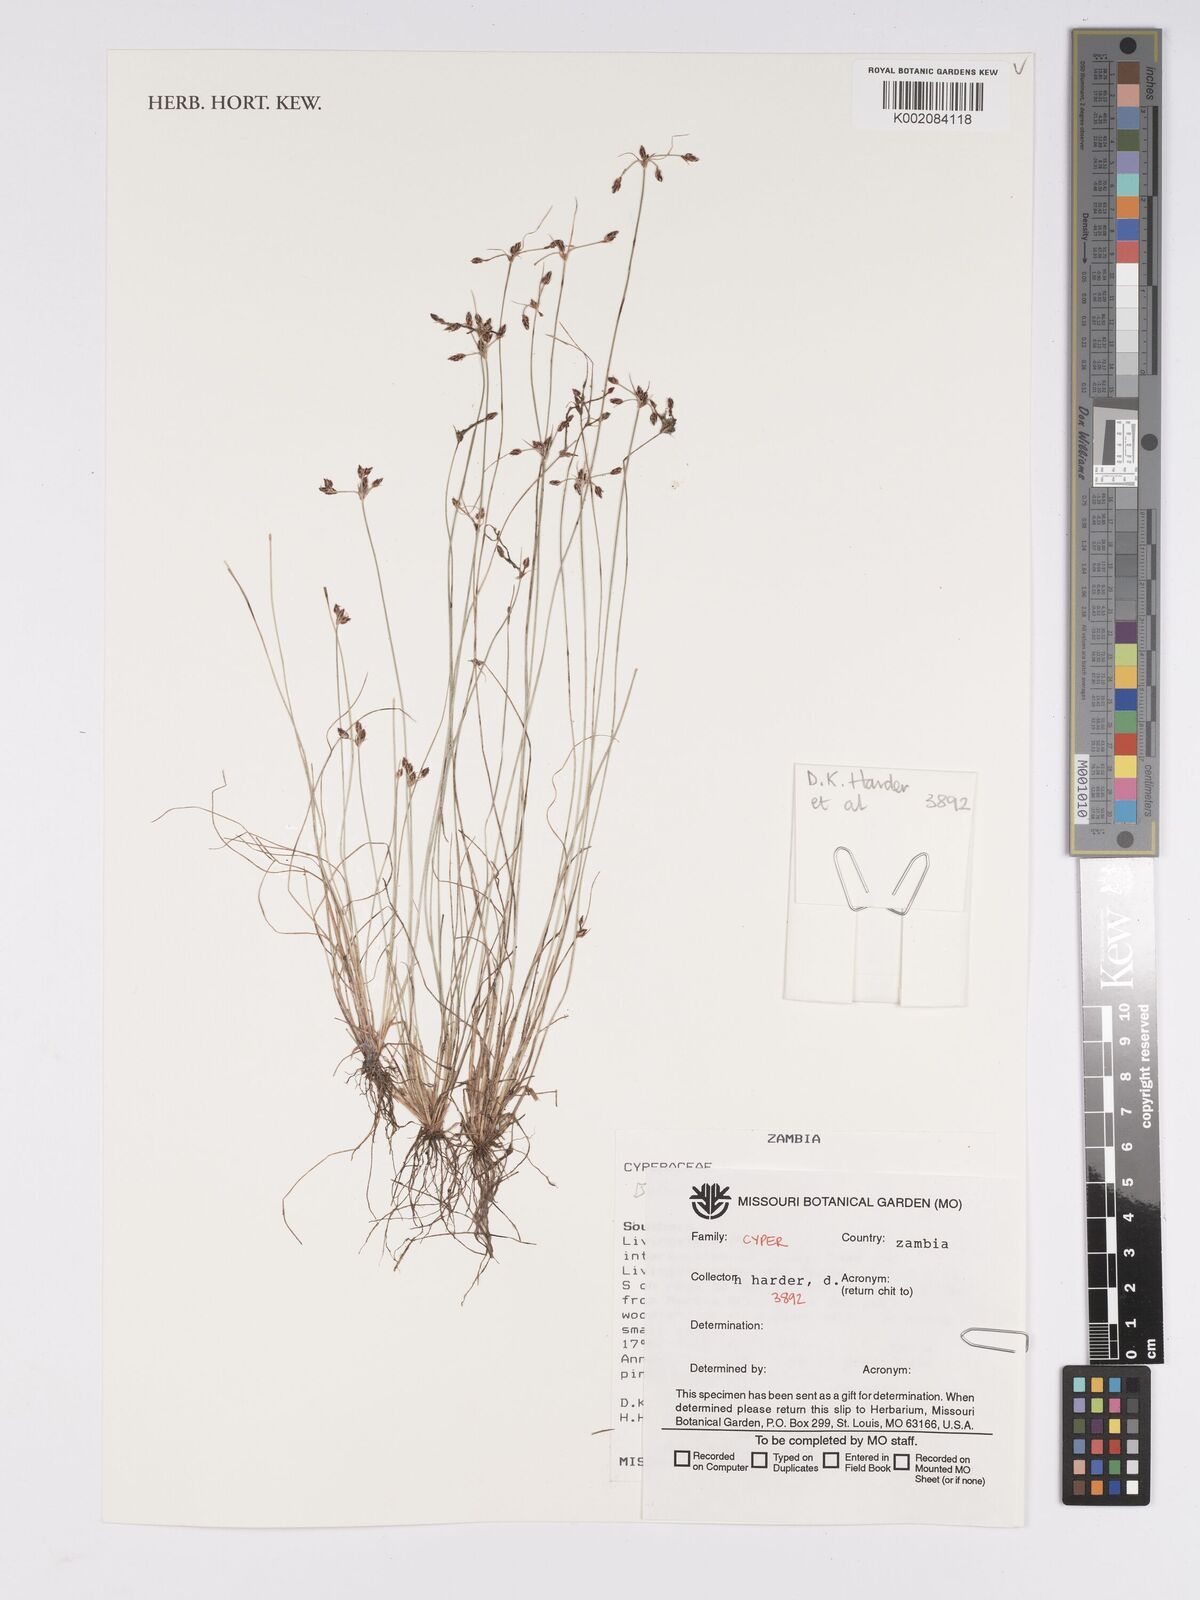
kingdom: Plantae
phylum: Tracheophyta
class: Liliopsida
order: Poales
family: Cyperaceae
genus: Bulbostylis
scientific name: Bulbostylis
